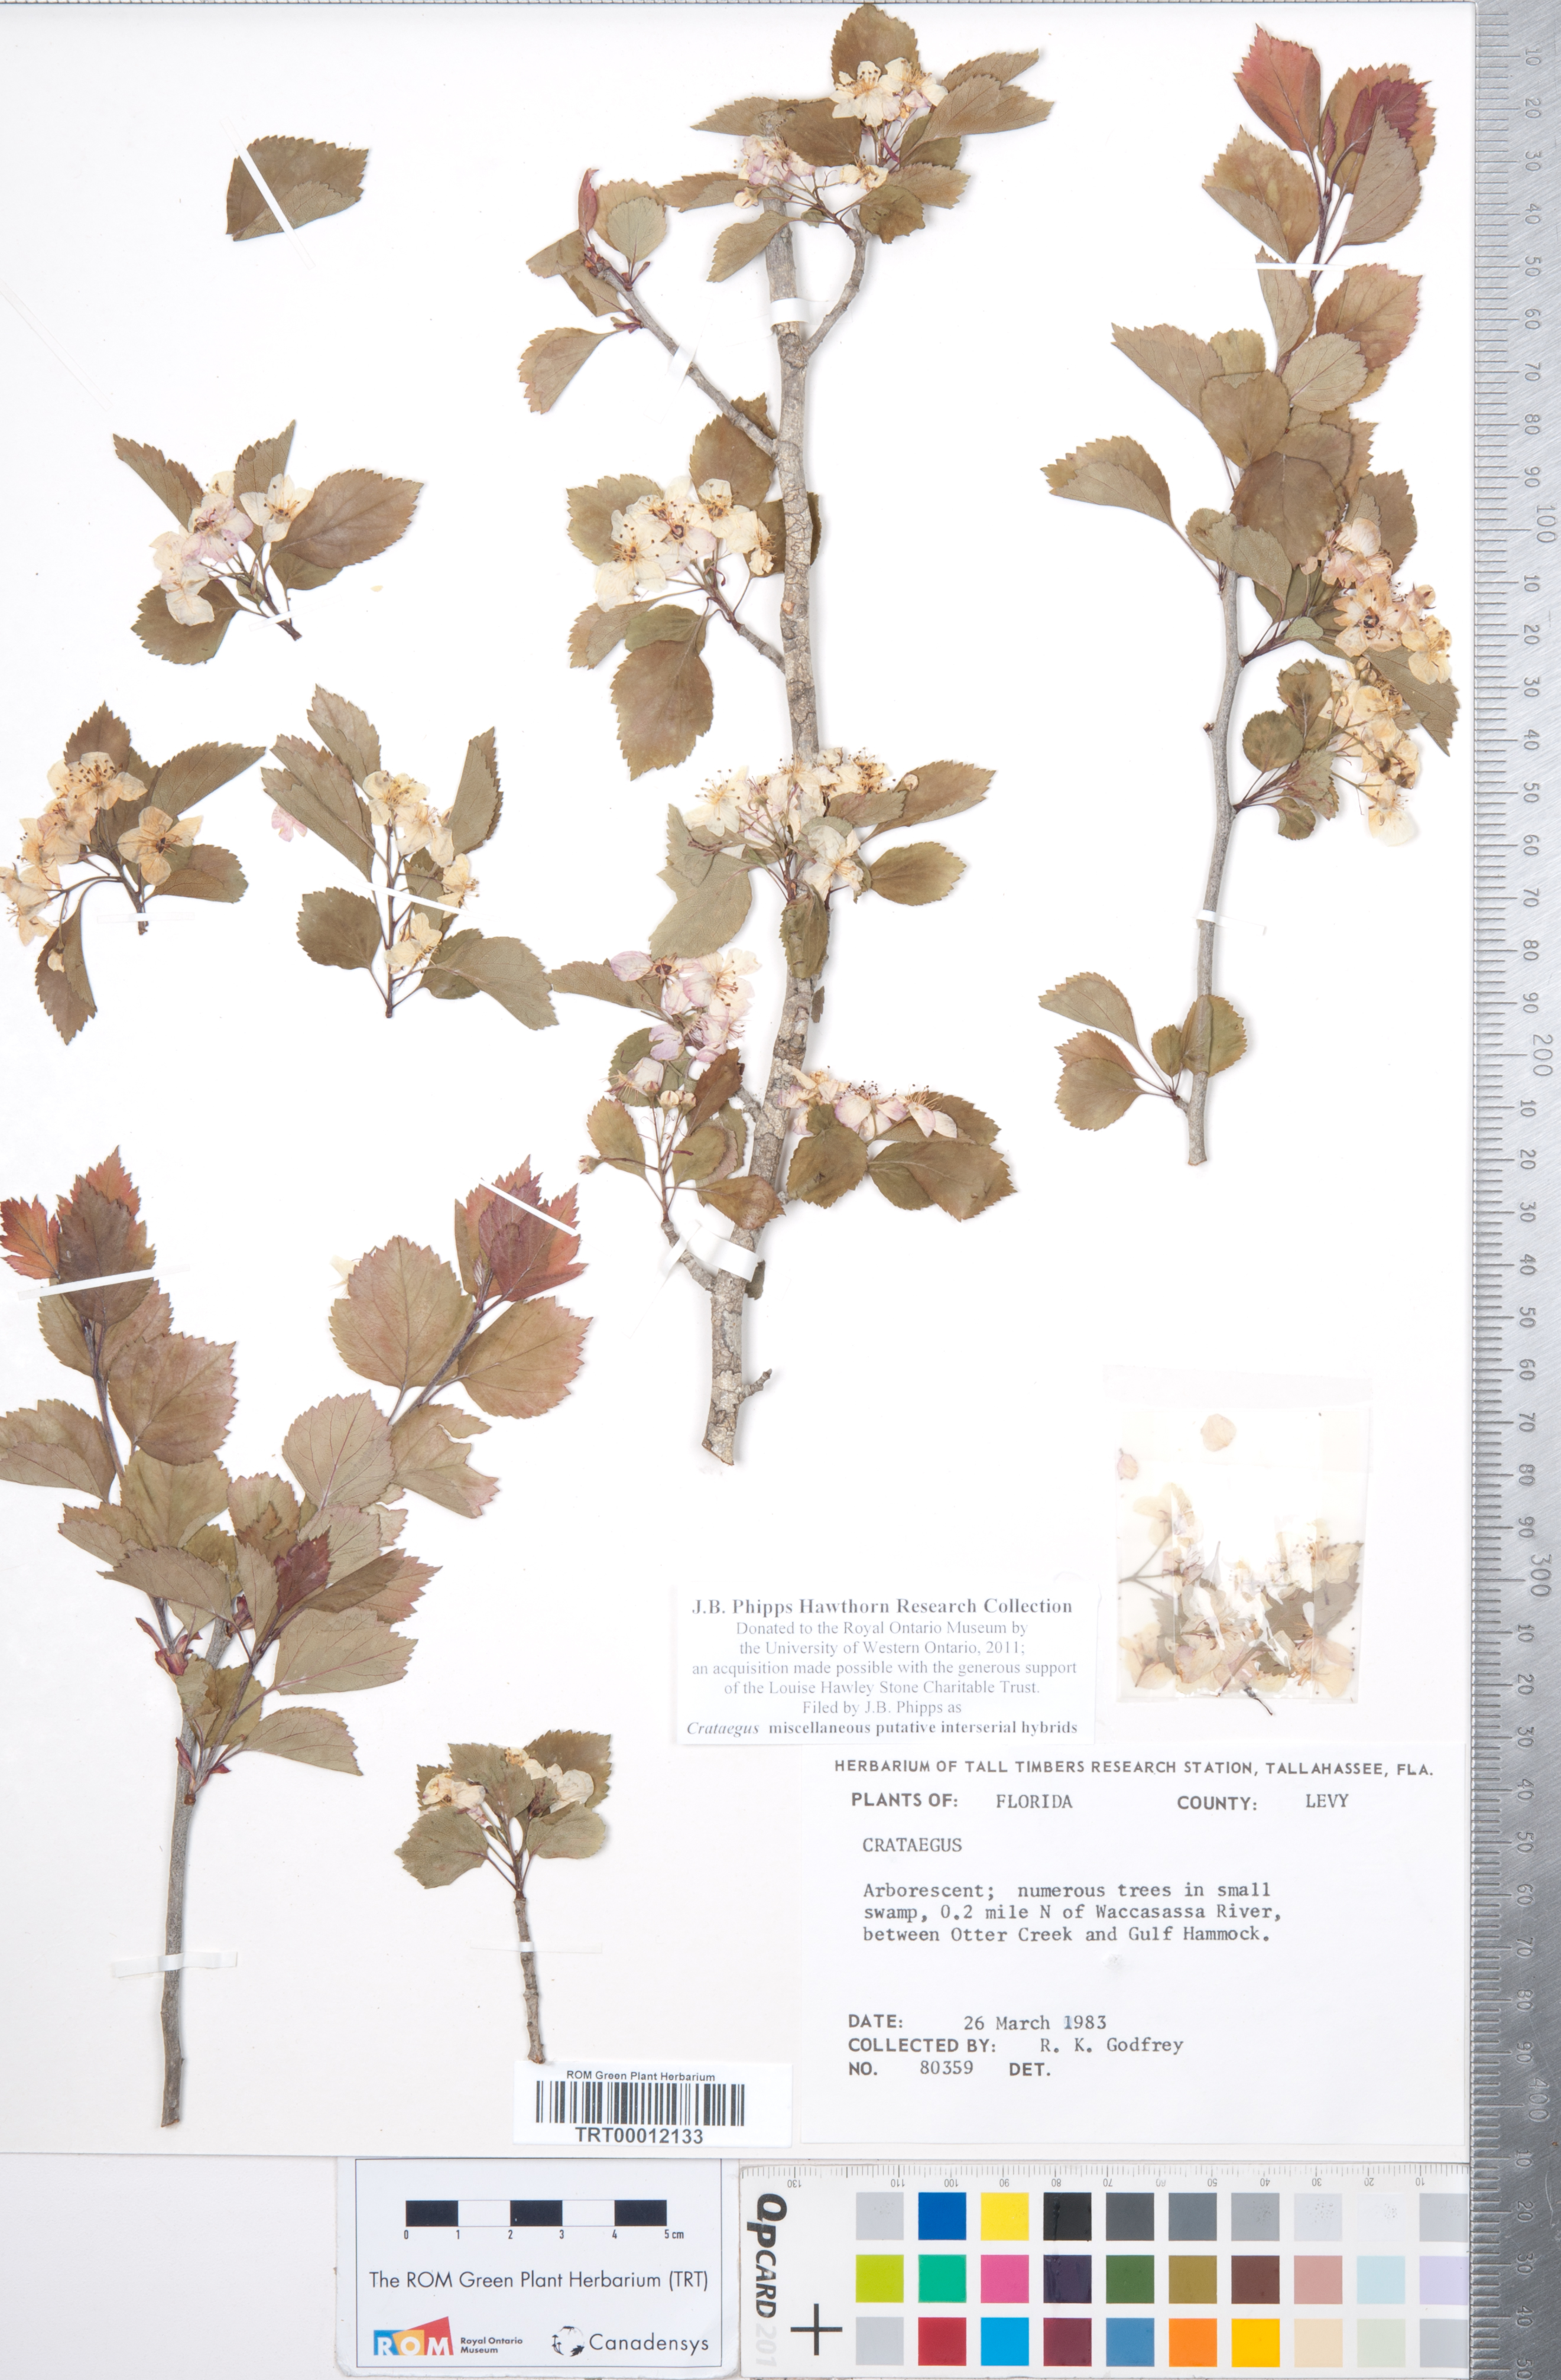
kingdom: Plantae
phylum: Tracheophyta
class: Magnoliopsida
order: Rosales
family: Rosaceae
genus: Crataegus
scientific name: Crataegus
